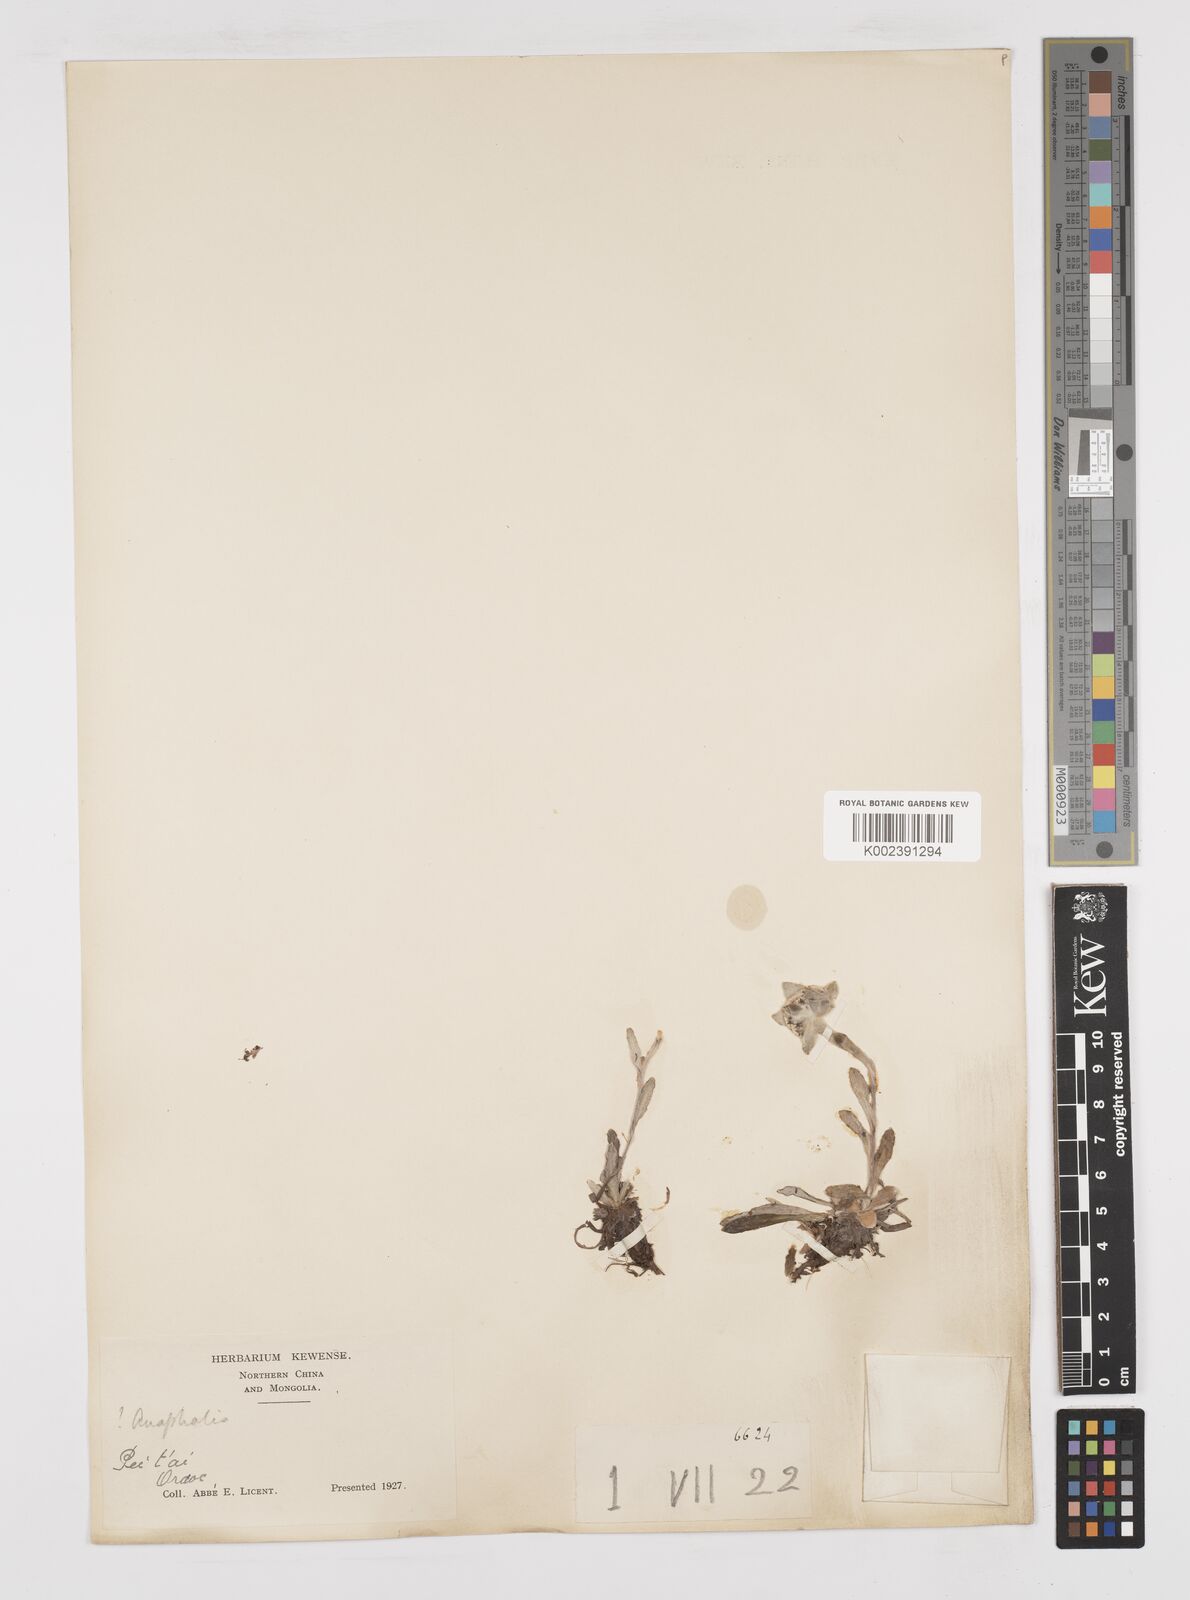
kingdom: Plantae
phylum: Tracheophyta
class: Magnoliopsida
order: Asterales
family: Asteraceae
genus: Anaphalis
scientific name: Anaphalis sinica
